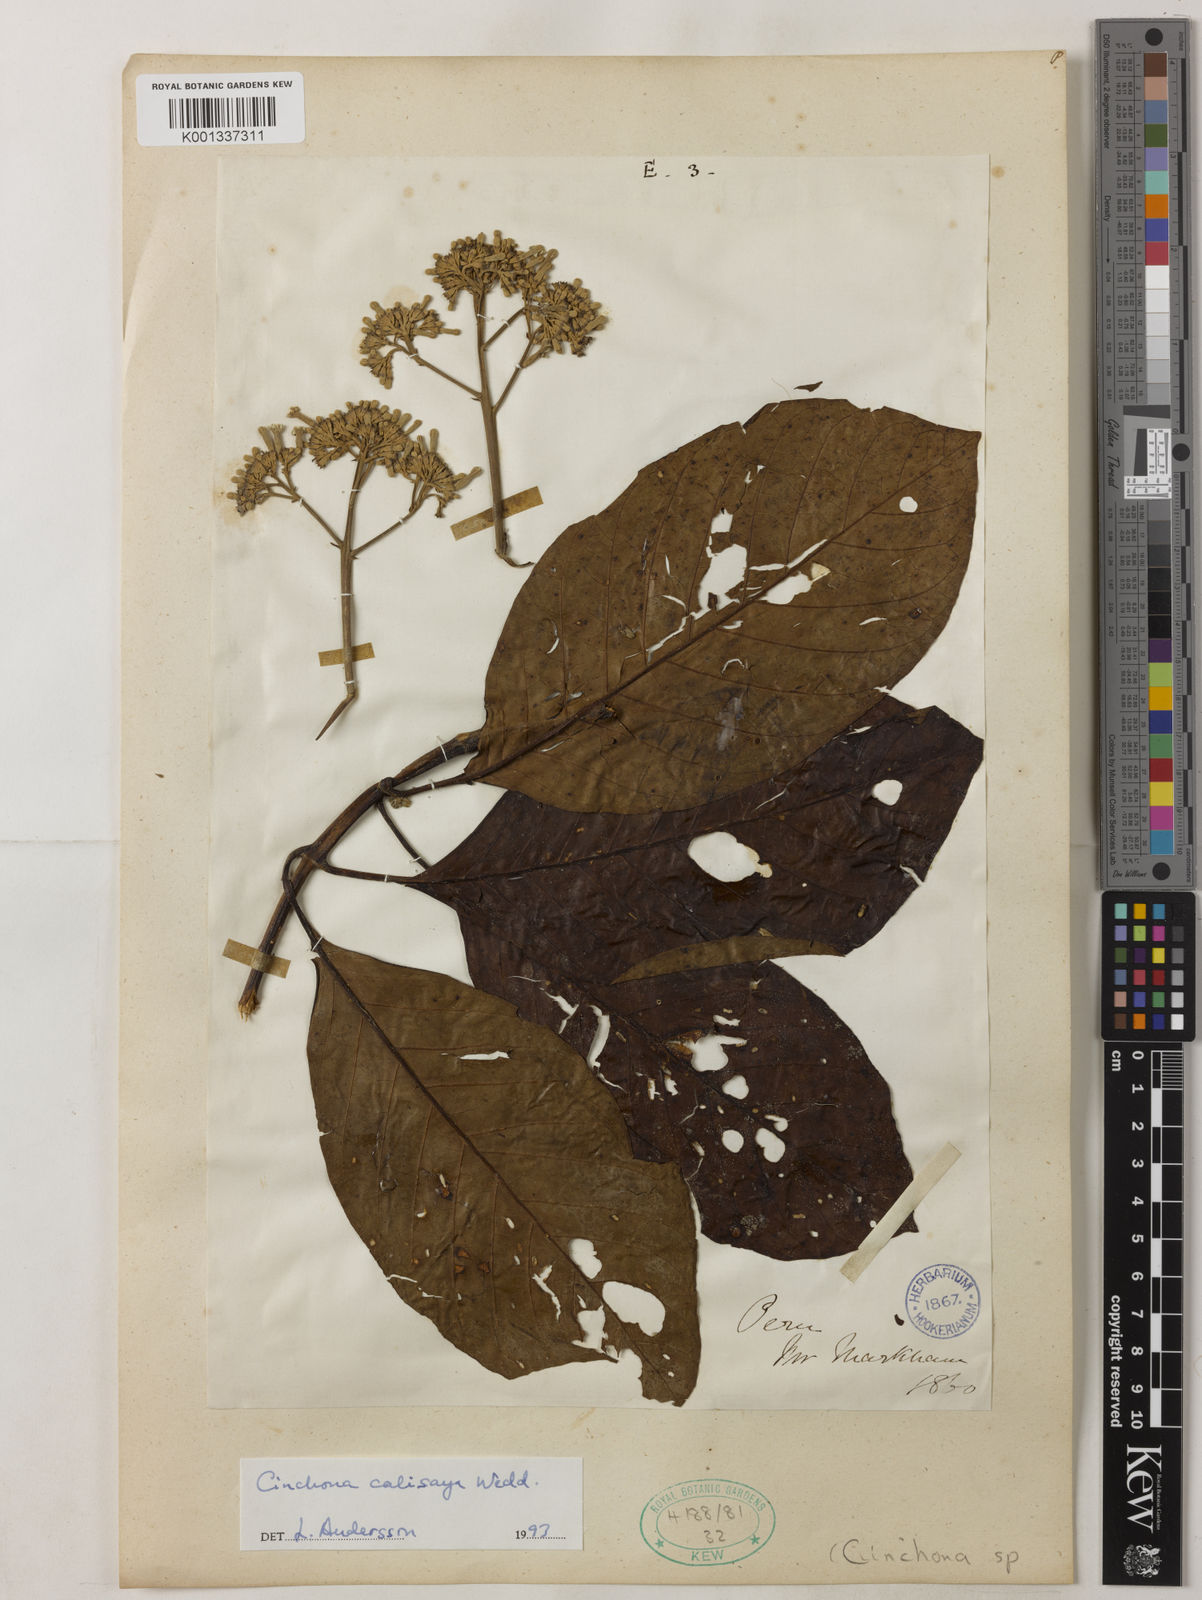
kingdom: Plantae
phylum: Tracheophyta
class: Magnoliopsida
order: Gentianales
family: Rubiaceae
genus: Cinchona
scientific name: Cinchona calisaya
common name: Ledgerbark
